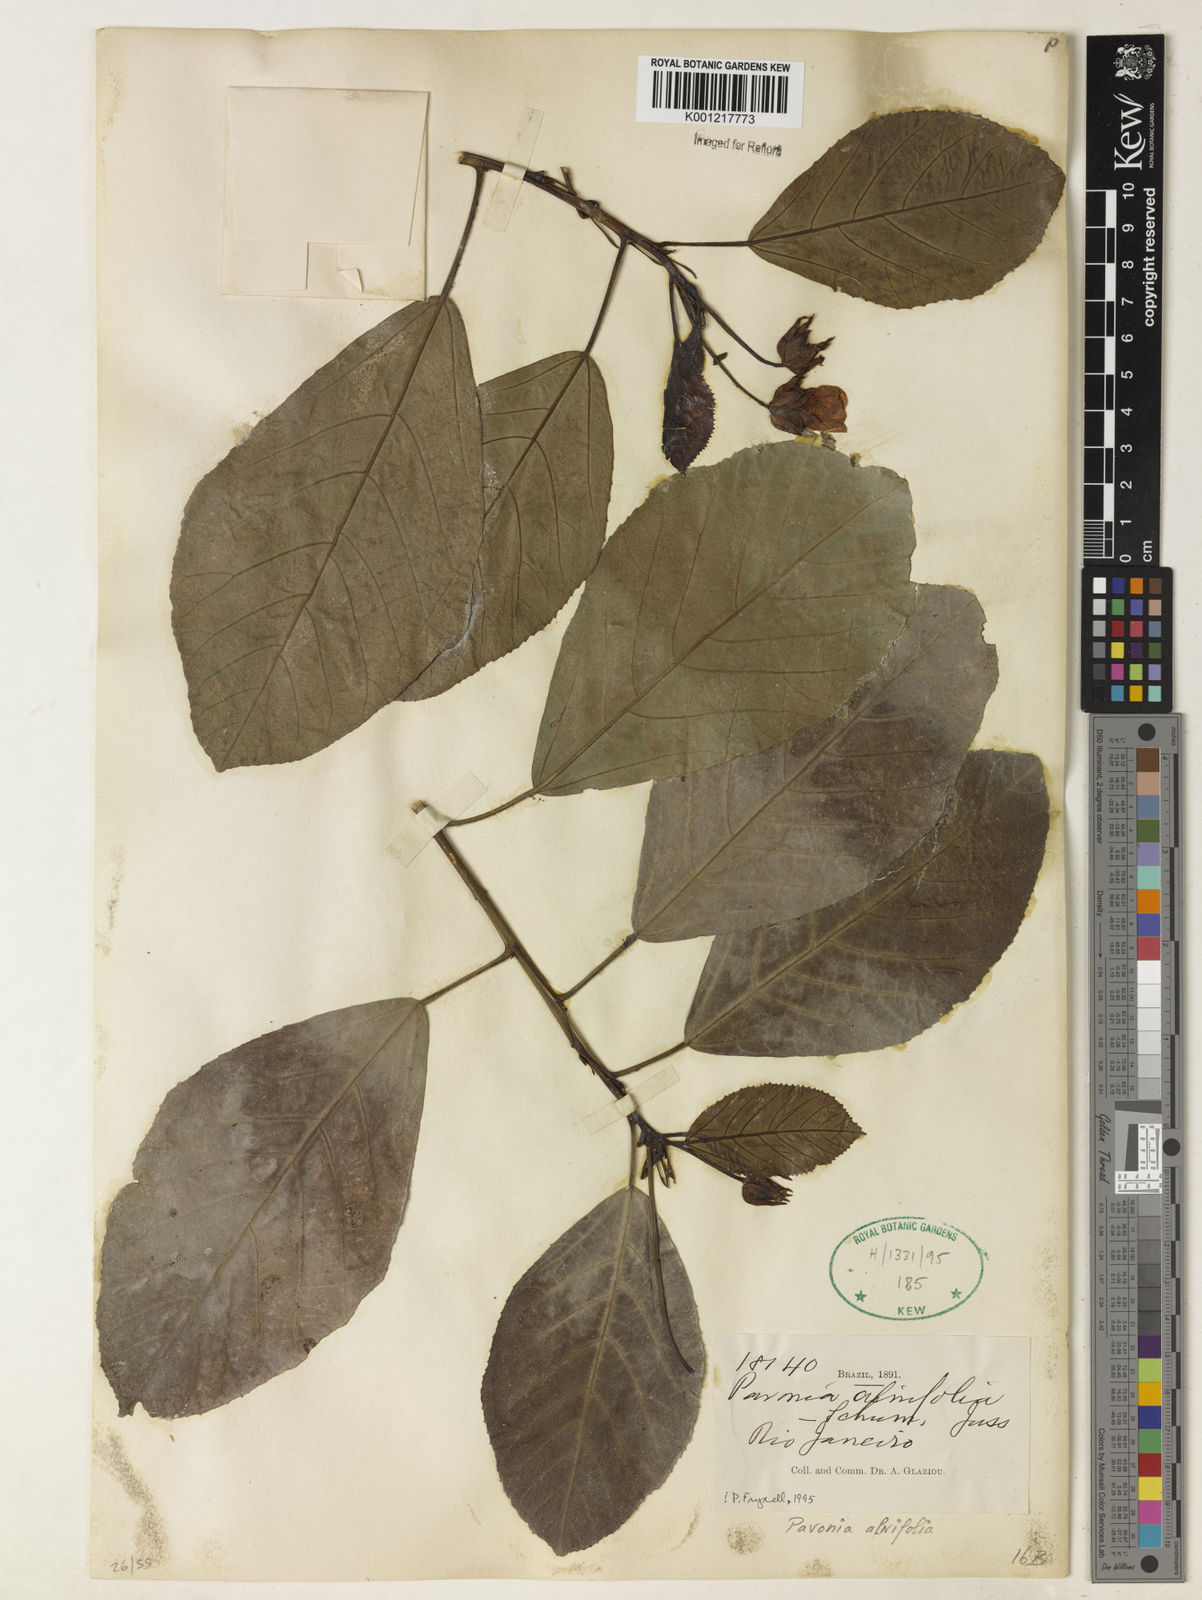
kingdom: Plantae
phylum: Tracheophyta
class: Magnoliopsida
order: Malvales
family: Malvaceae
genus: Pavonia
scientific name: Pavonia alnifolia
